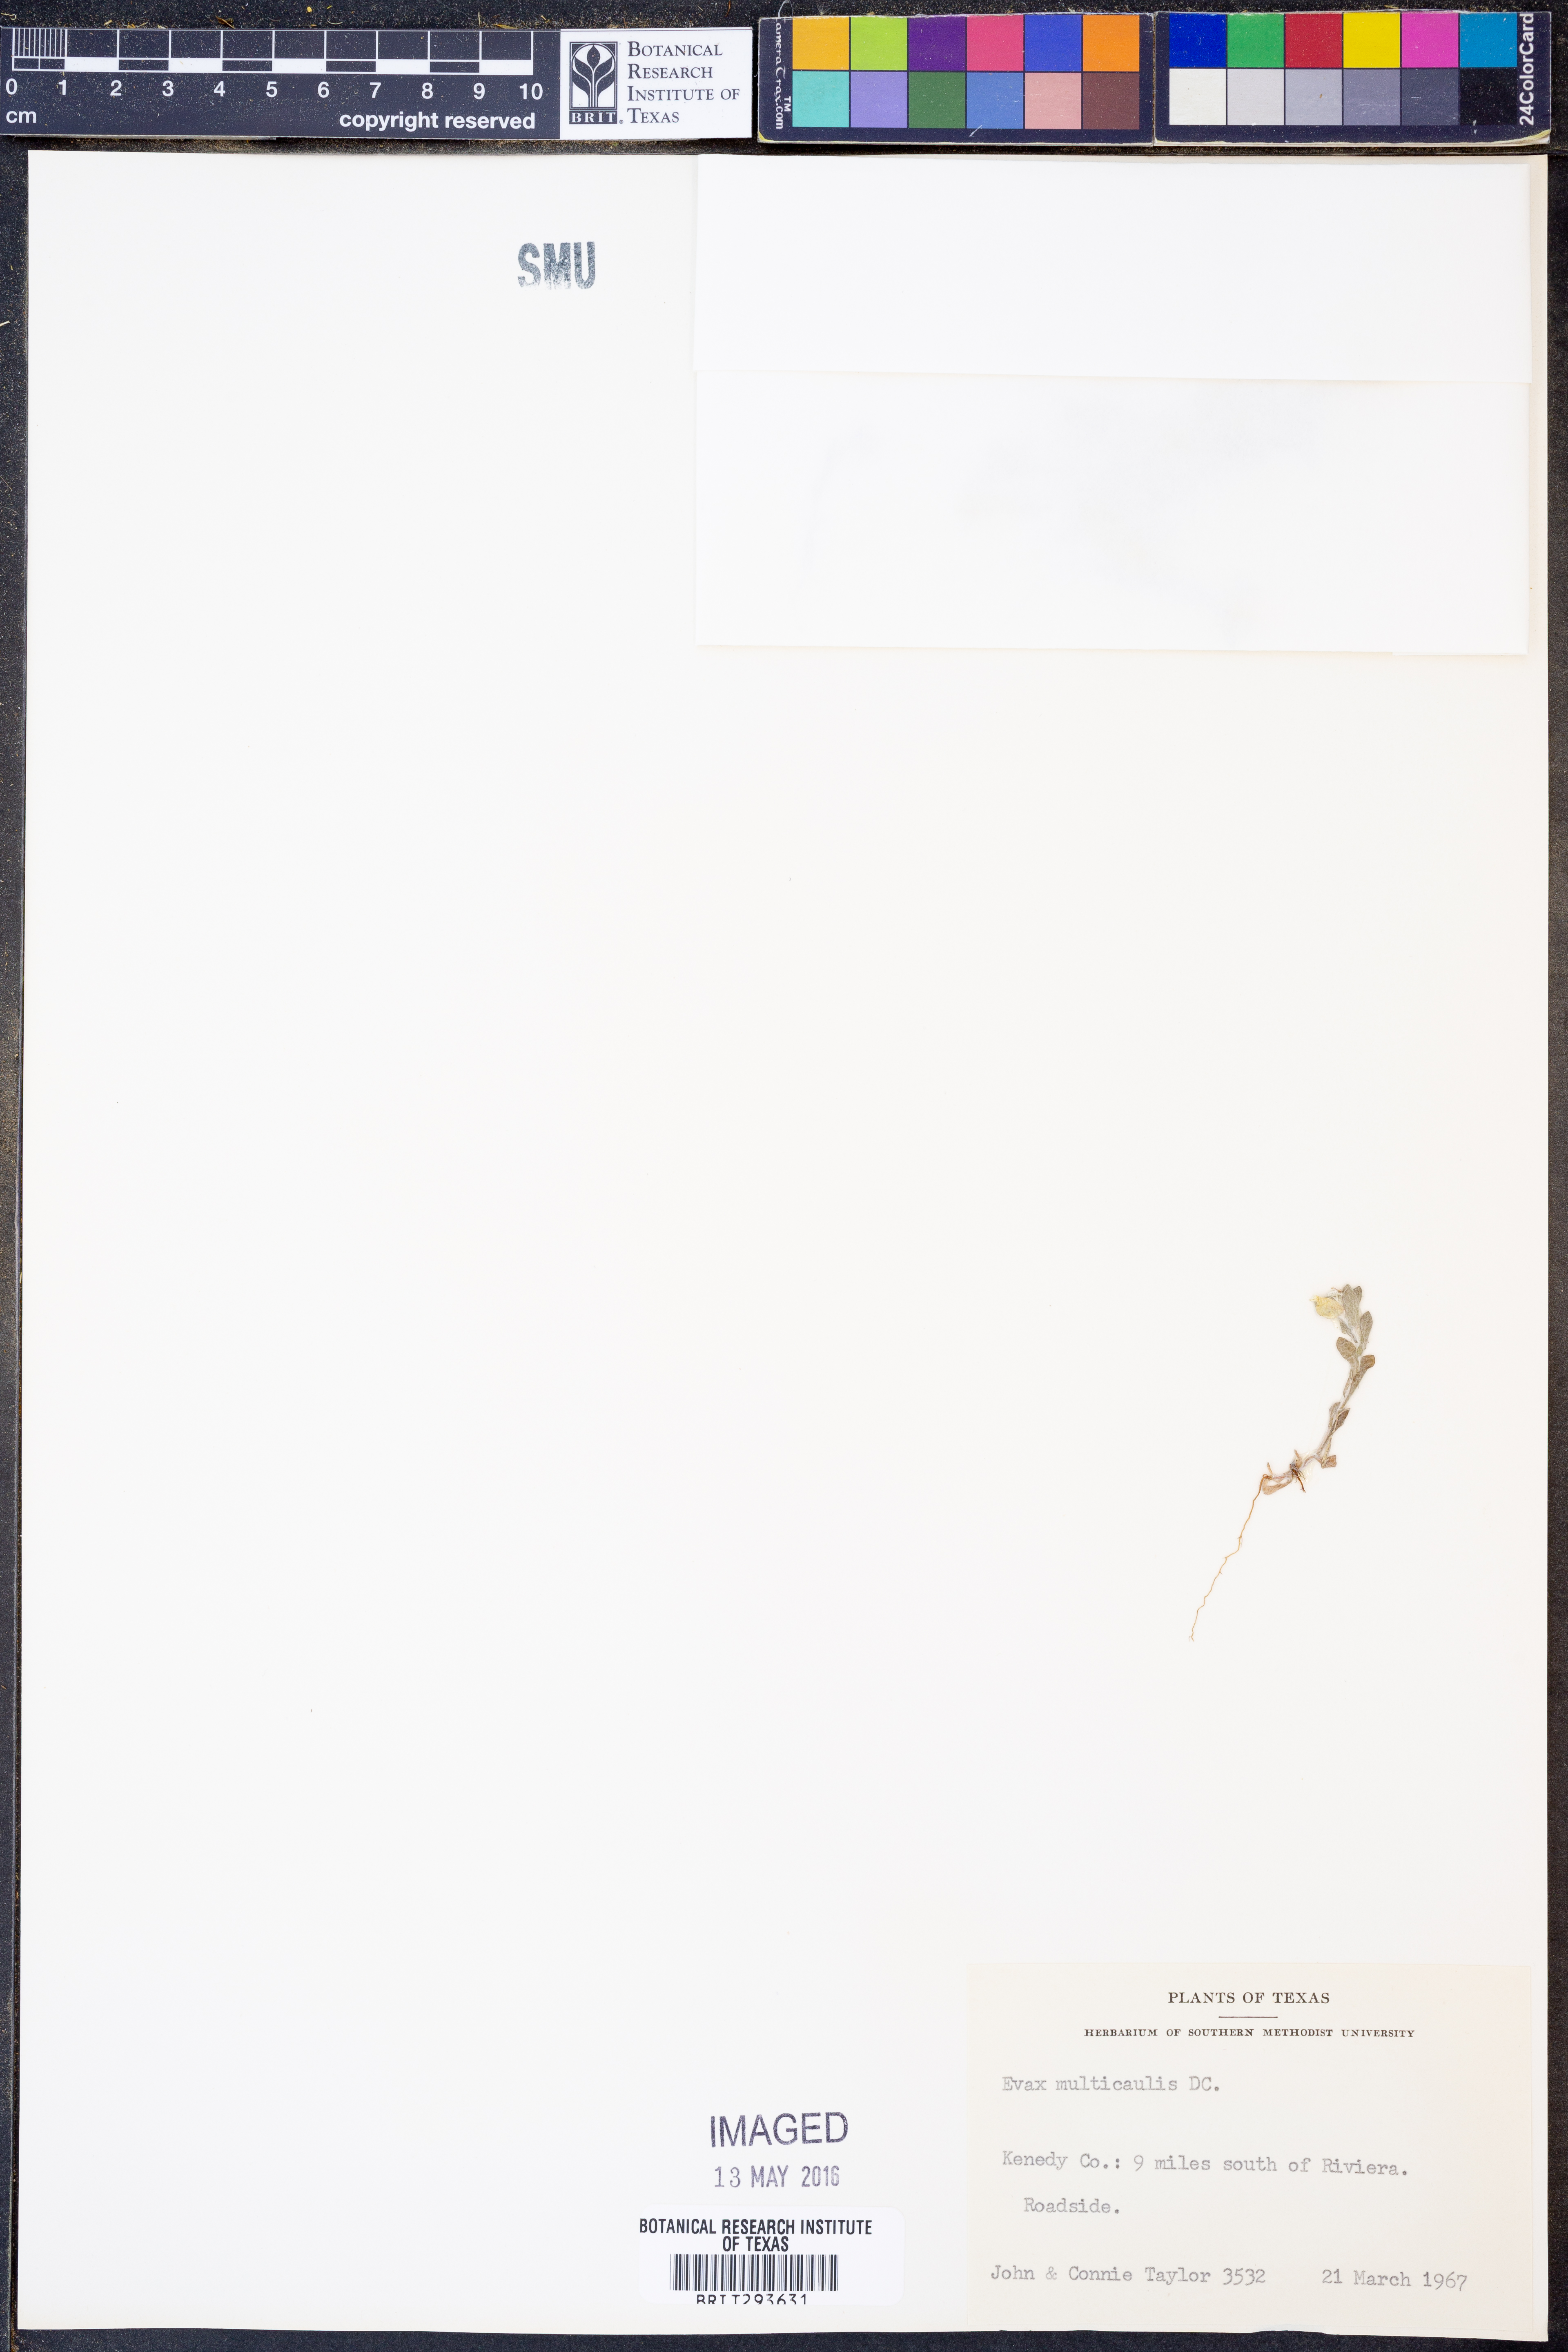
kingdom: Plantae
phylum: Tracheophyta
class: Magnoliopsida
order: Asterales
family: Asteraceae
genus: Diaperia
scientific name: Diaperia verna
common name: Many-stem rabbit-tobacco
